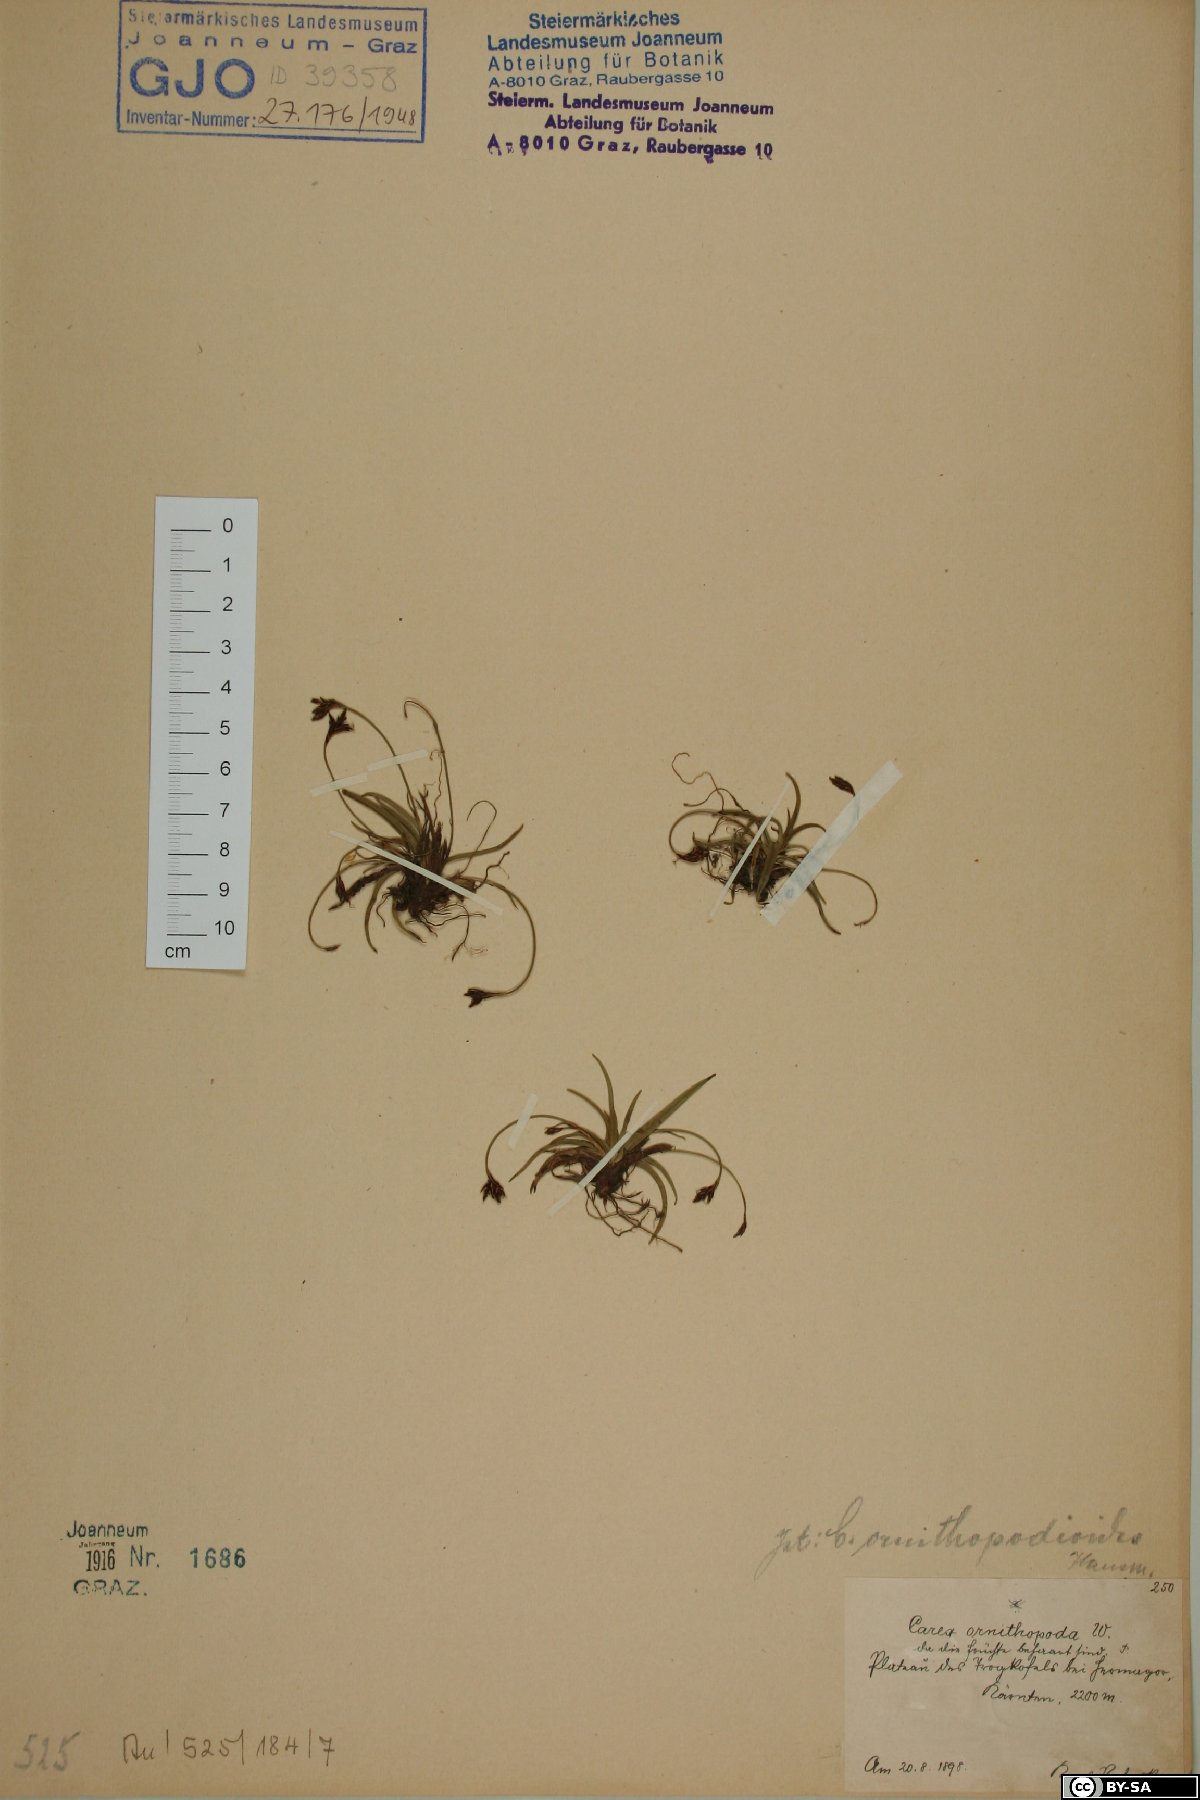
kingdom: Plantae
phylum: Tracheophyta
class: Liliopsida
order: Poales
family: Cyperaceae
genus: Carex
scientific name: Carex ornithopoda
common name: Bird's-foot sedge
